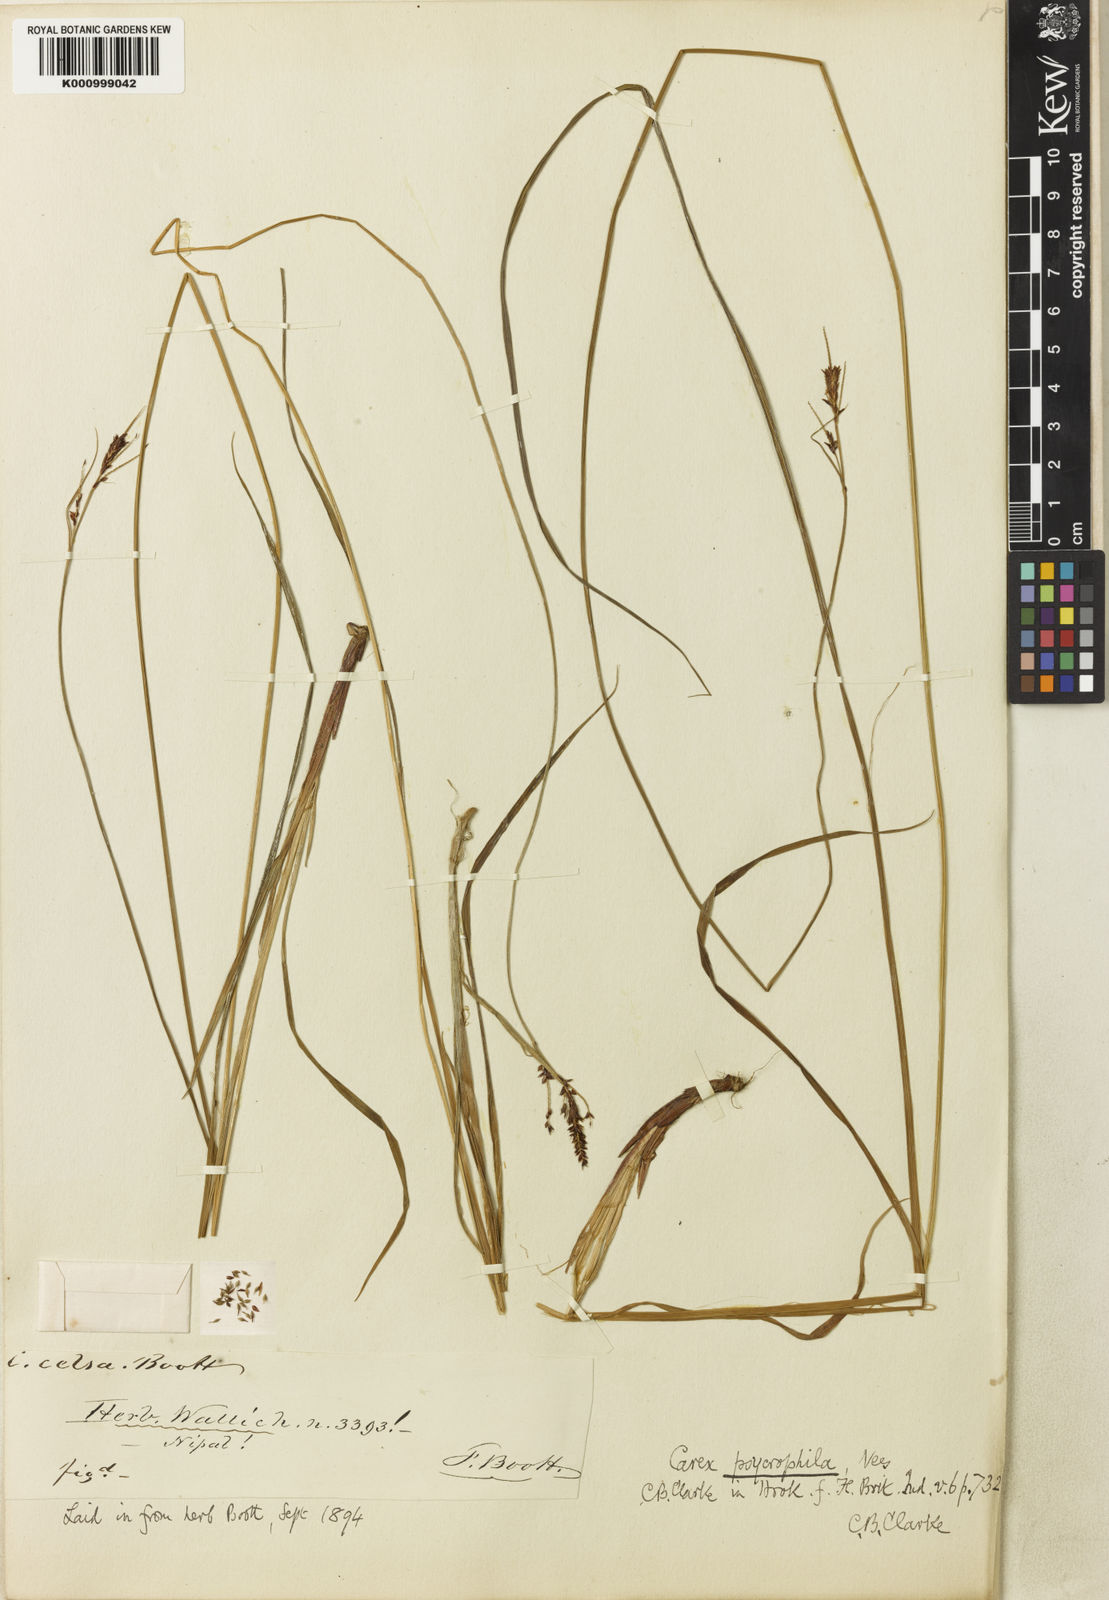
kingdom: Plantae
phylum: Tracheophyta
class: Liliopsida
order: Poales
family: Cyperaceae
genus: Carex
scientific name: Carex psychrophila
